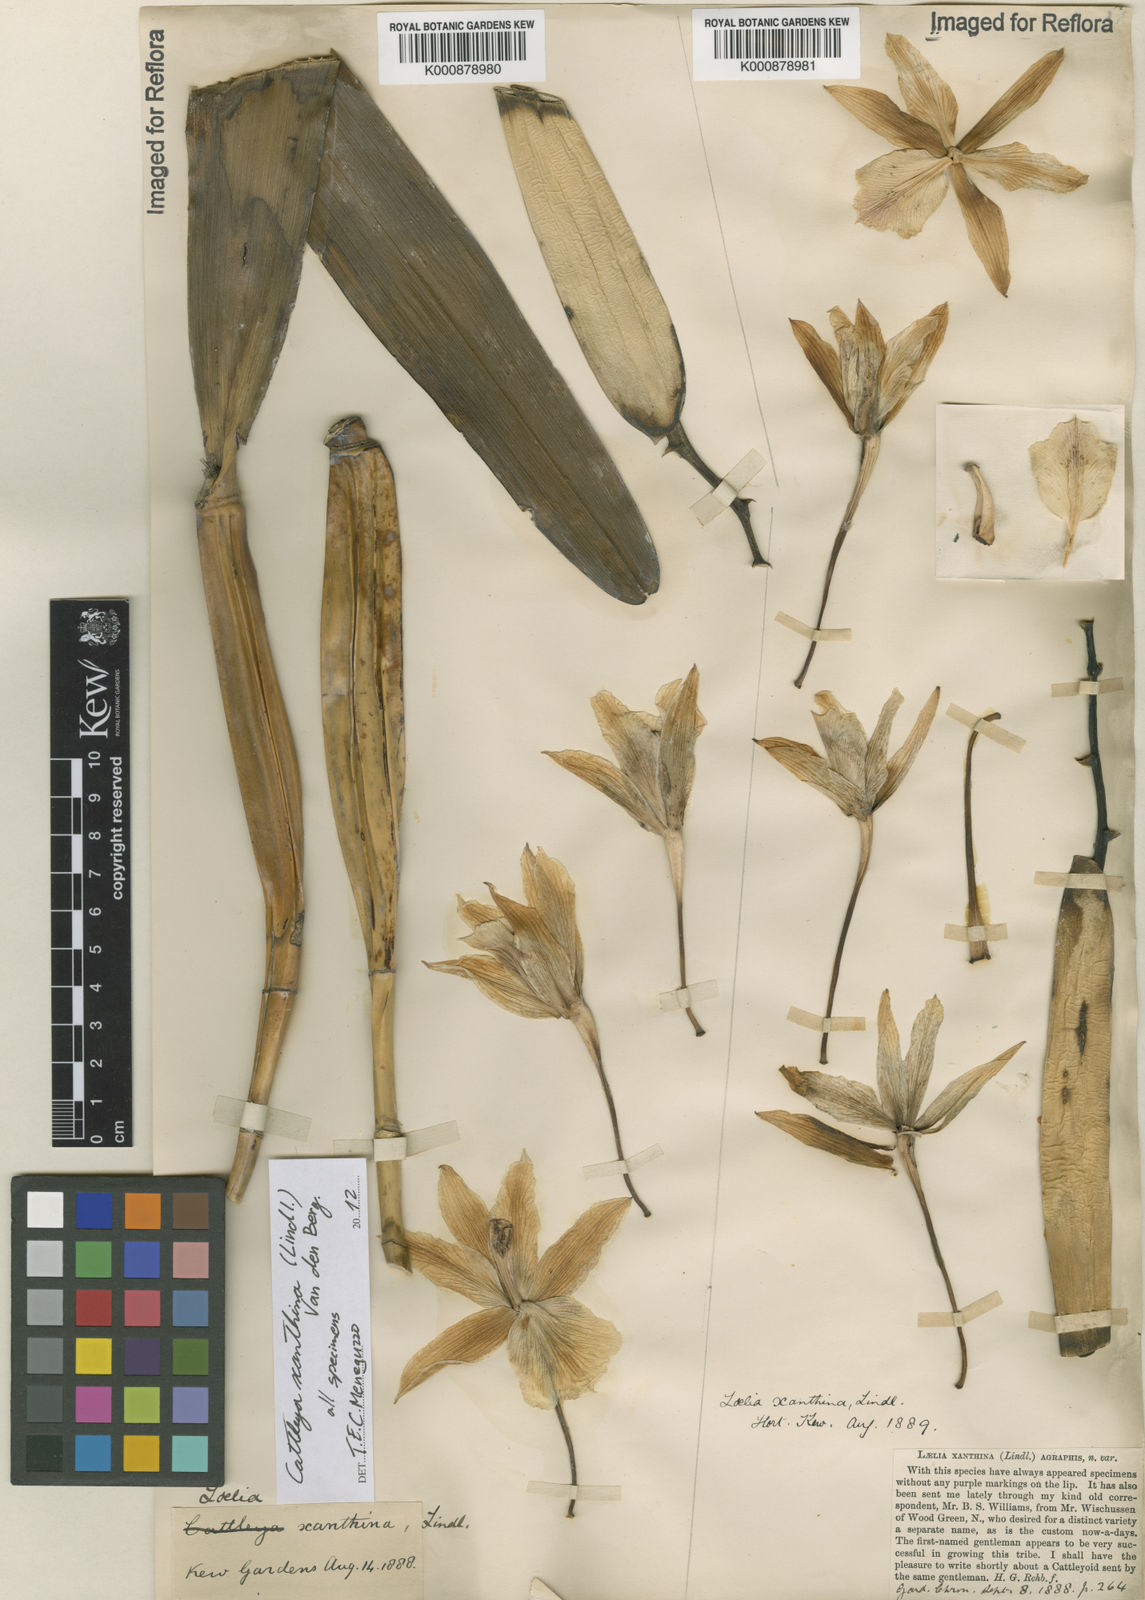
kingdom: Plantae
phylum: Tracheophyta
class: Liliopsida
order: Asparagales
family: Orchidaceae
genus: Cattleya
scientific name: Cattleya xanthina
